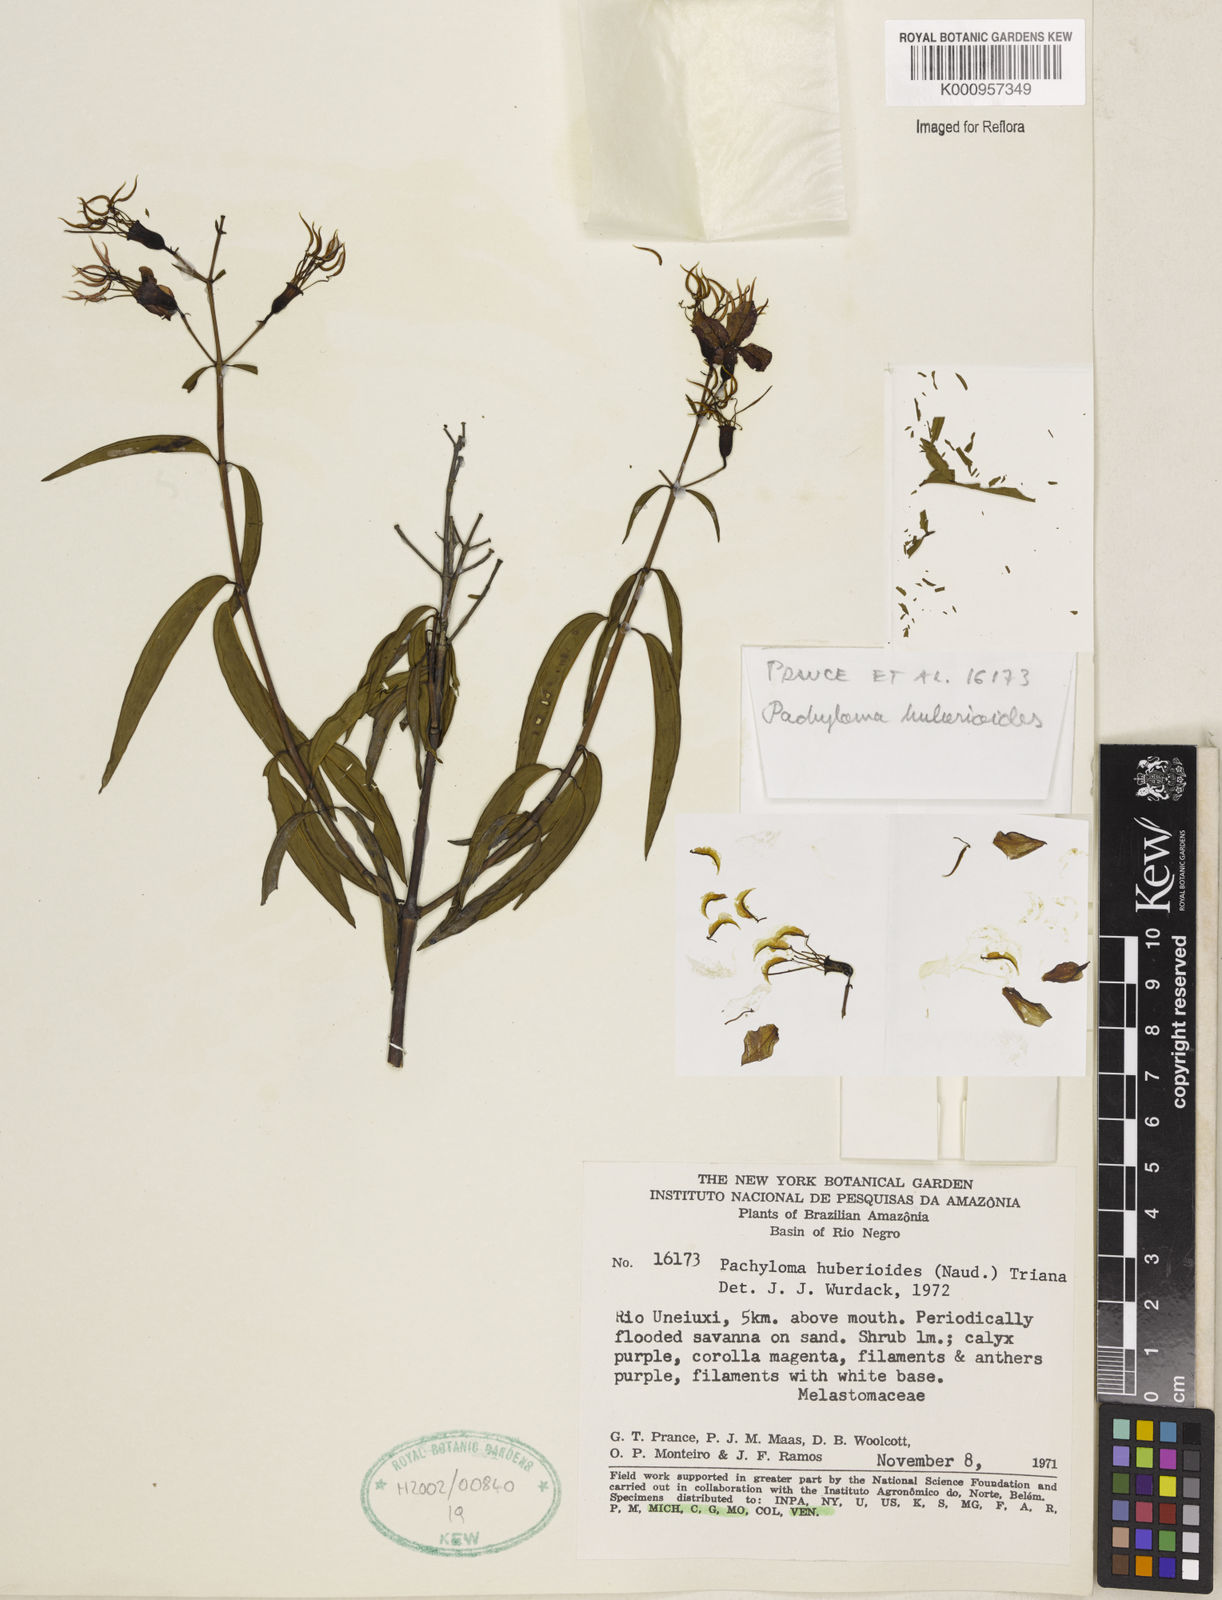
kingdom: Plantae
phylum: Tracheophyta
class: Magnoliopsida
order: Myrtales
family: Melastomataceae
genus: Pachyloma
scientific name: Pachyloma
